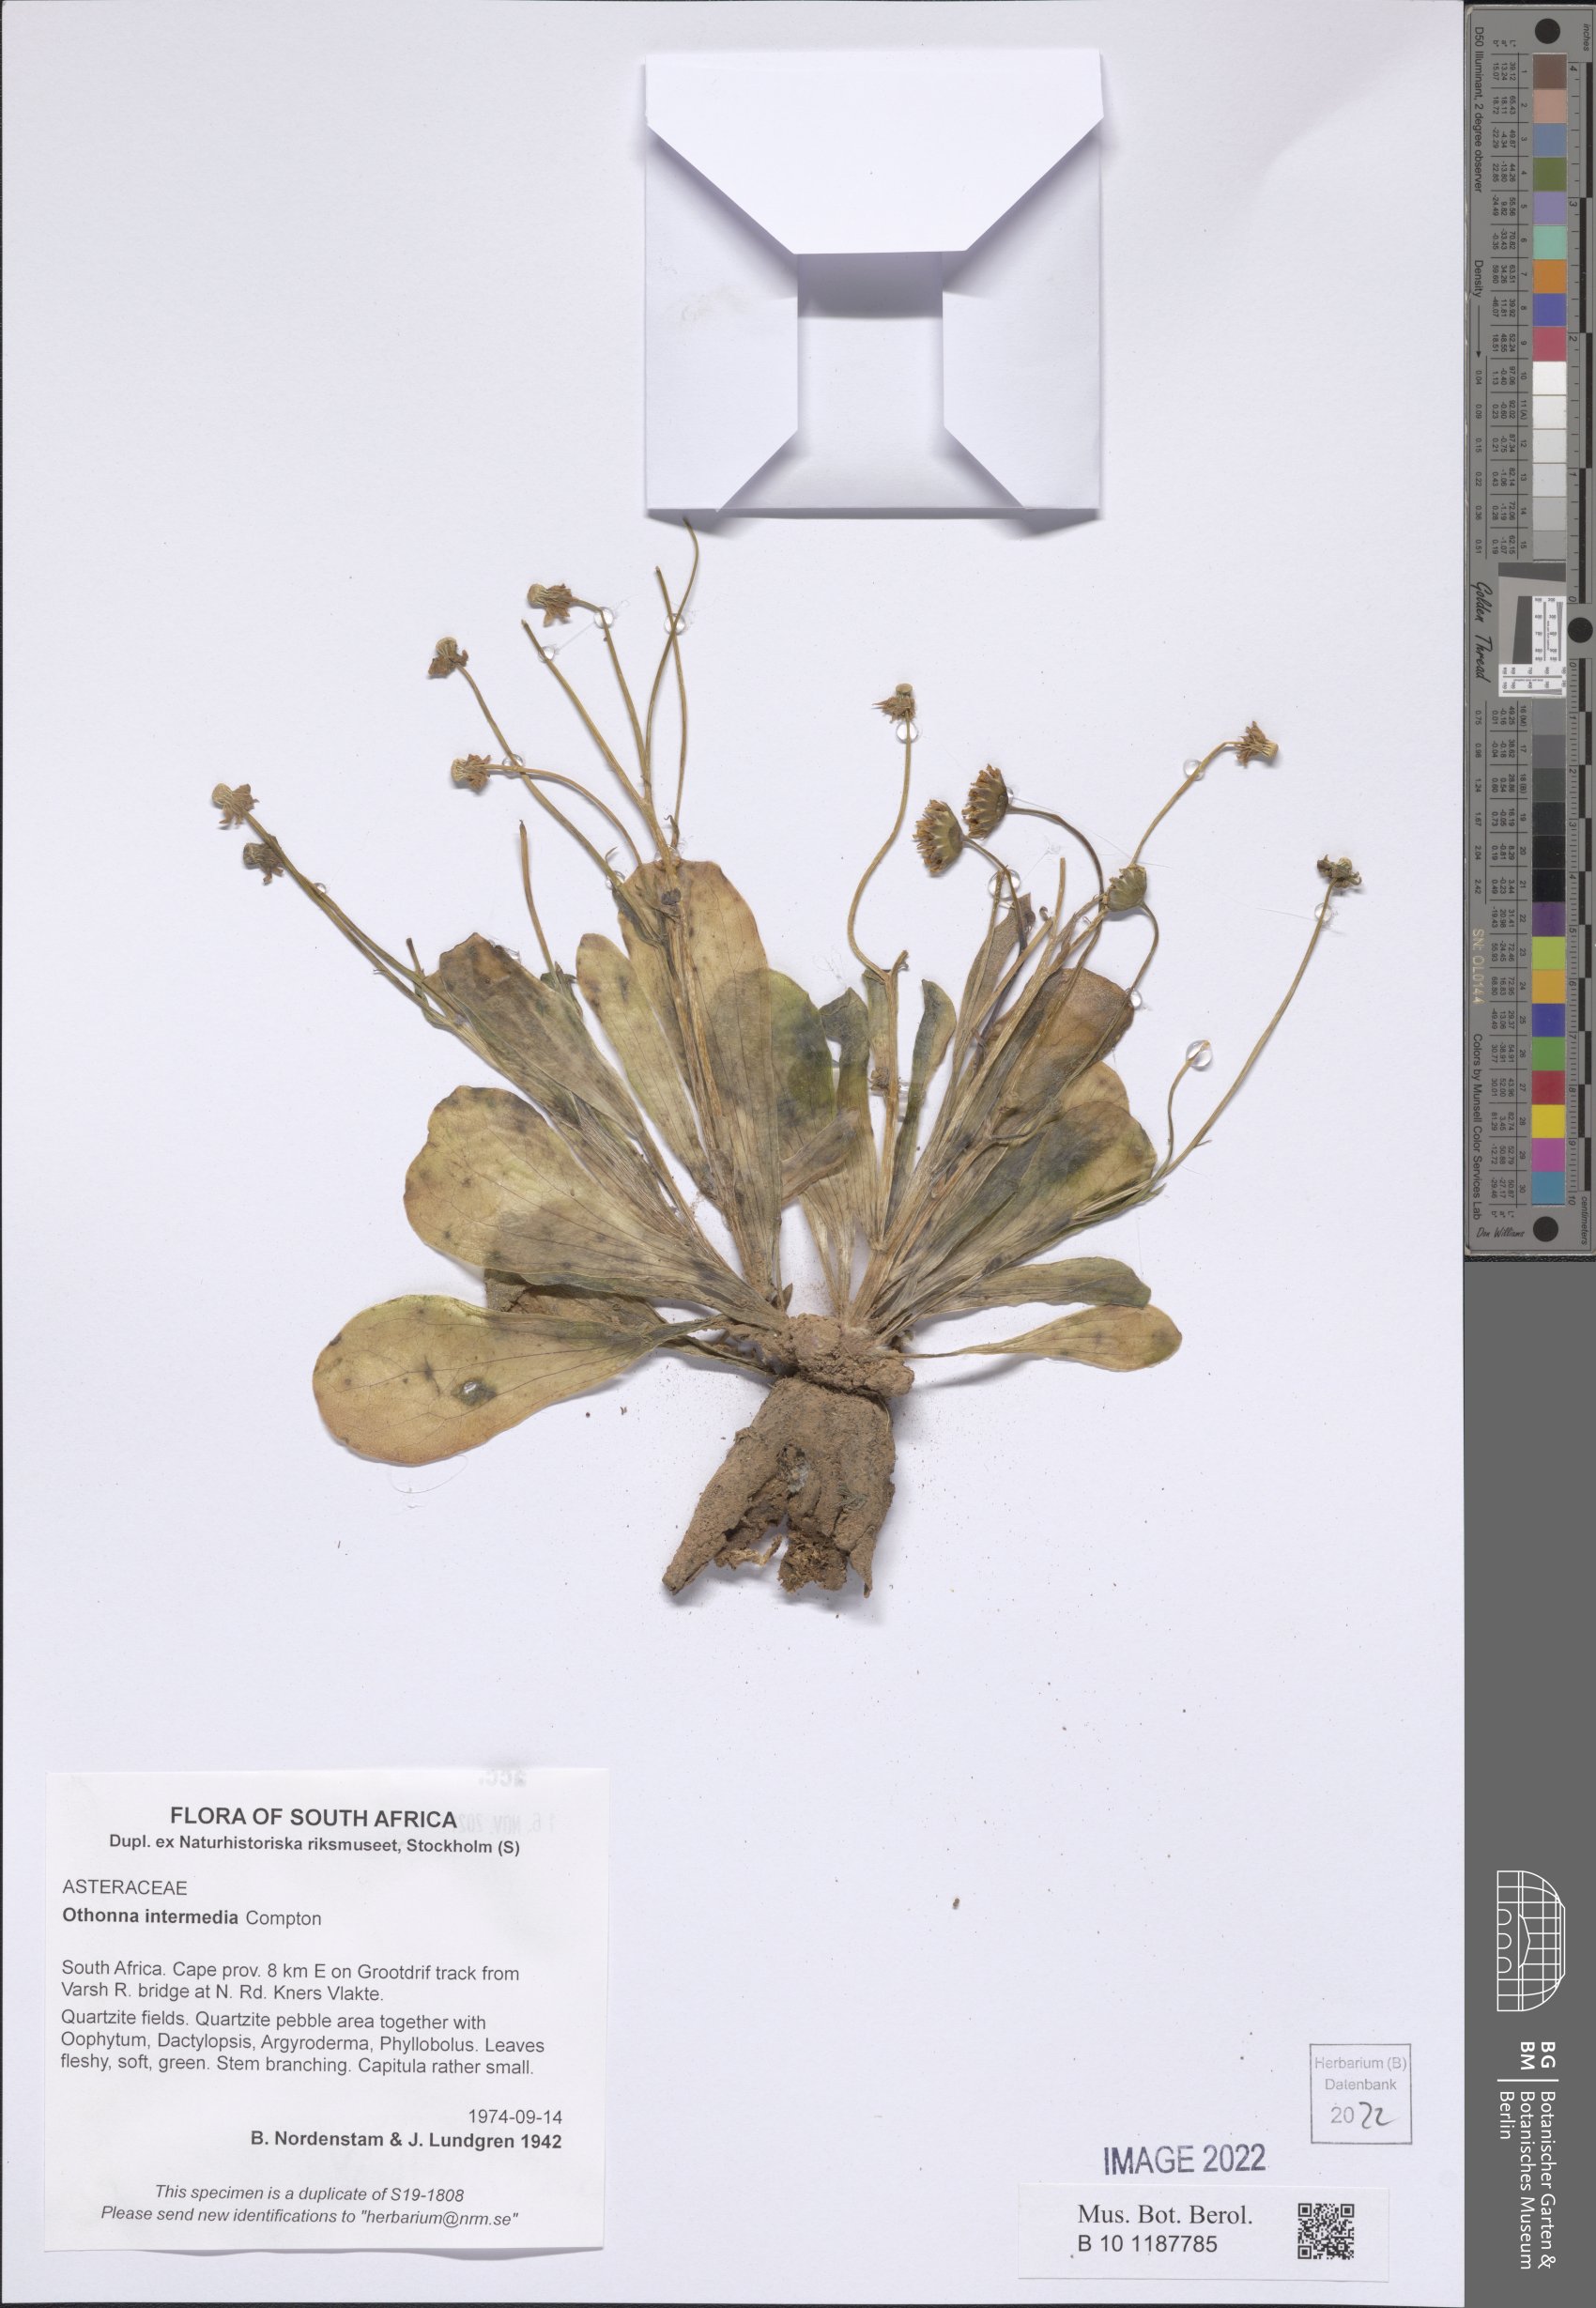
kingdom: Plantae
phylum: Tracheophyta
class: Magnoliopsida
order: Asterales
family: Asteraceae
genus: Othonna
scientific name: Othonna intermedia
